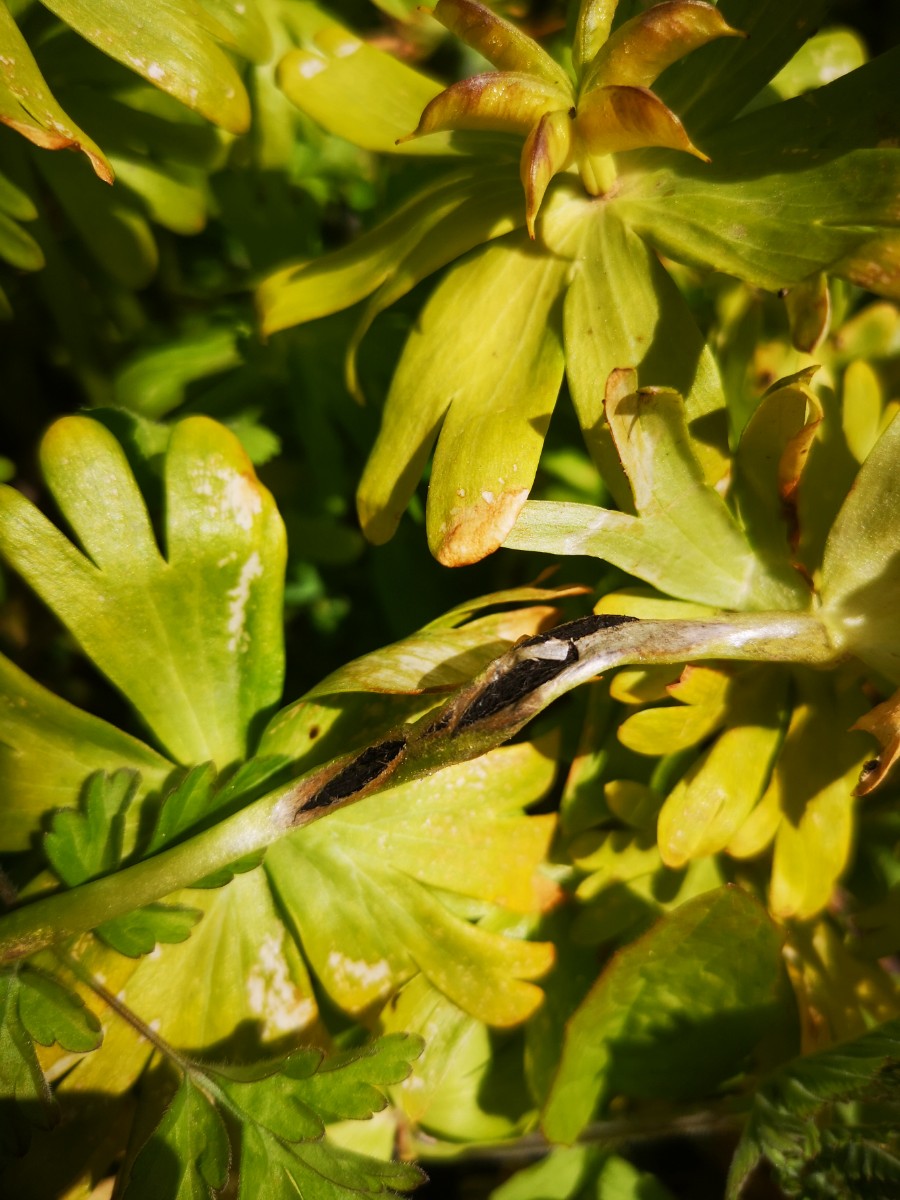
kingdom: Fungi
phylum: Basidiomycota
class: Ustilaginomycetes
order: Urocystidales
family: Urocystidaceae
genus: Urocystis
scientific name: Urocystis eranthidis
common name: erantis-brand
